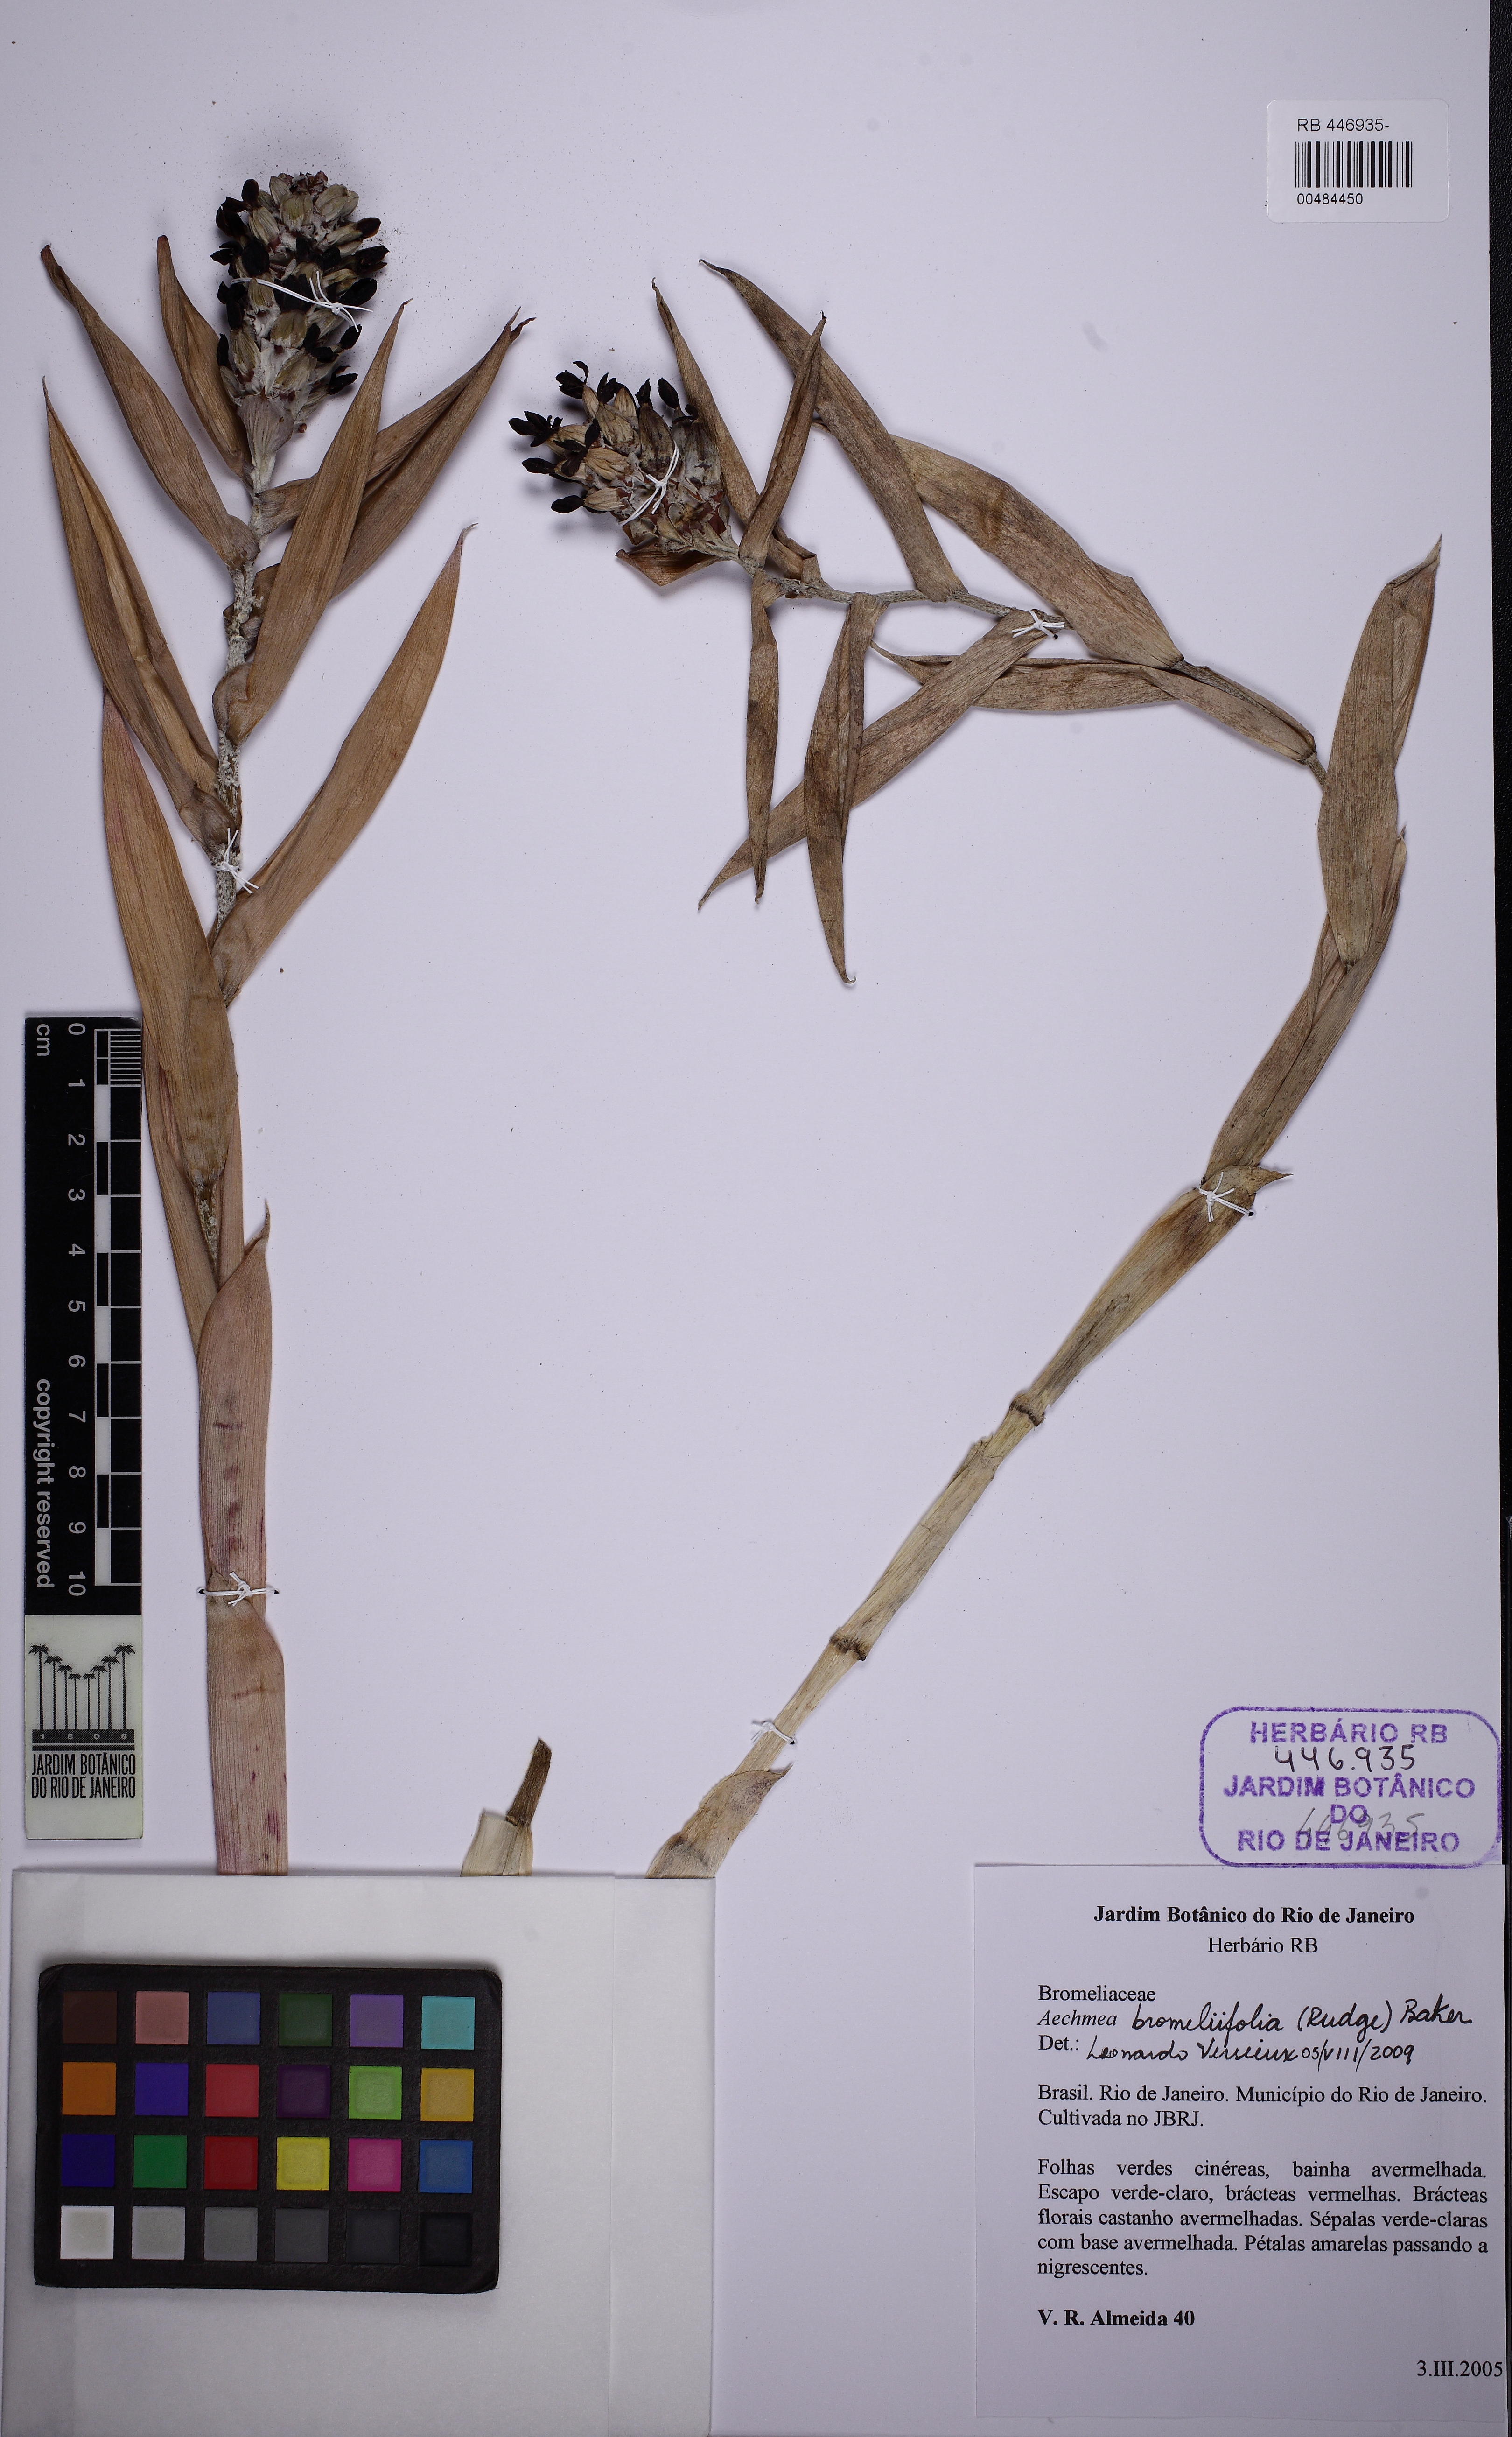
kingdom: Plantae
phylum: Tracheophyta
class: Liliopsida
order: Poales
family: Bromeliaceae
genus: Aechmea
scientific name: Aechmea bromeliifolia
